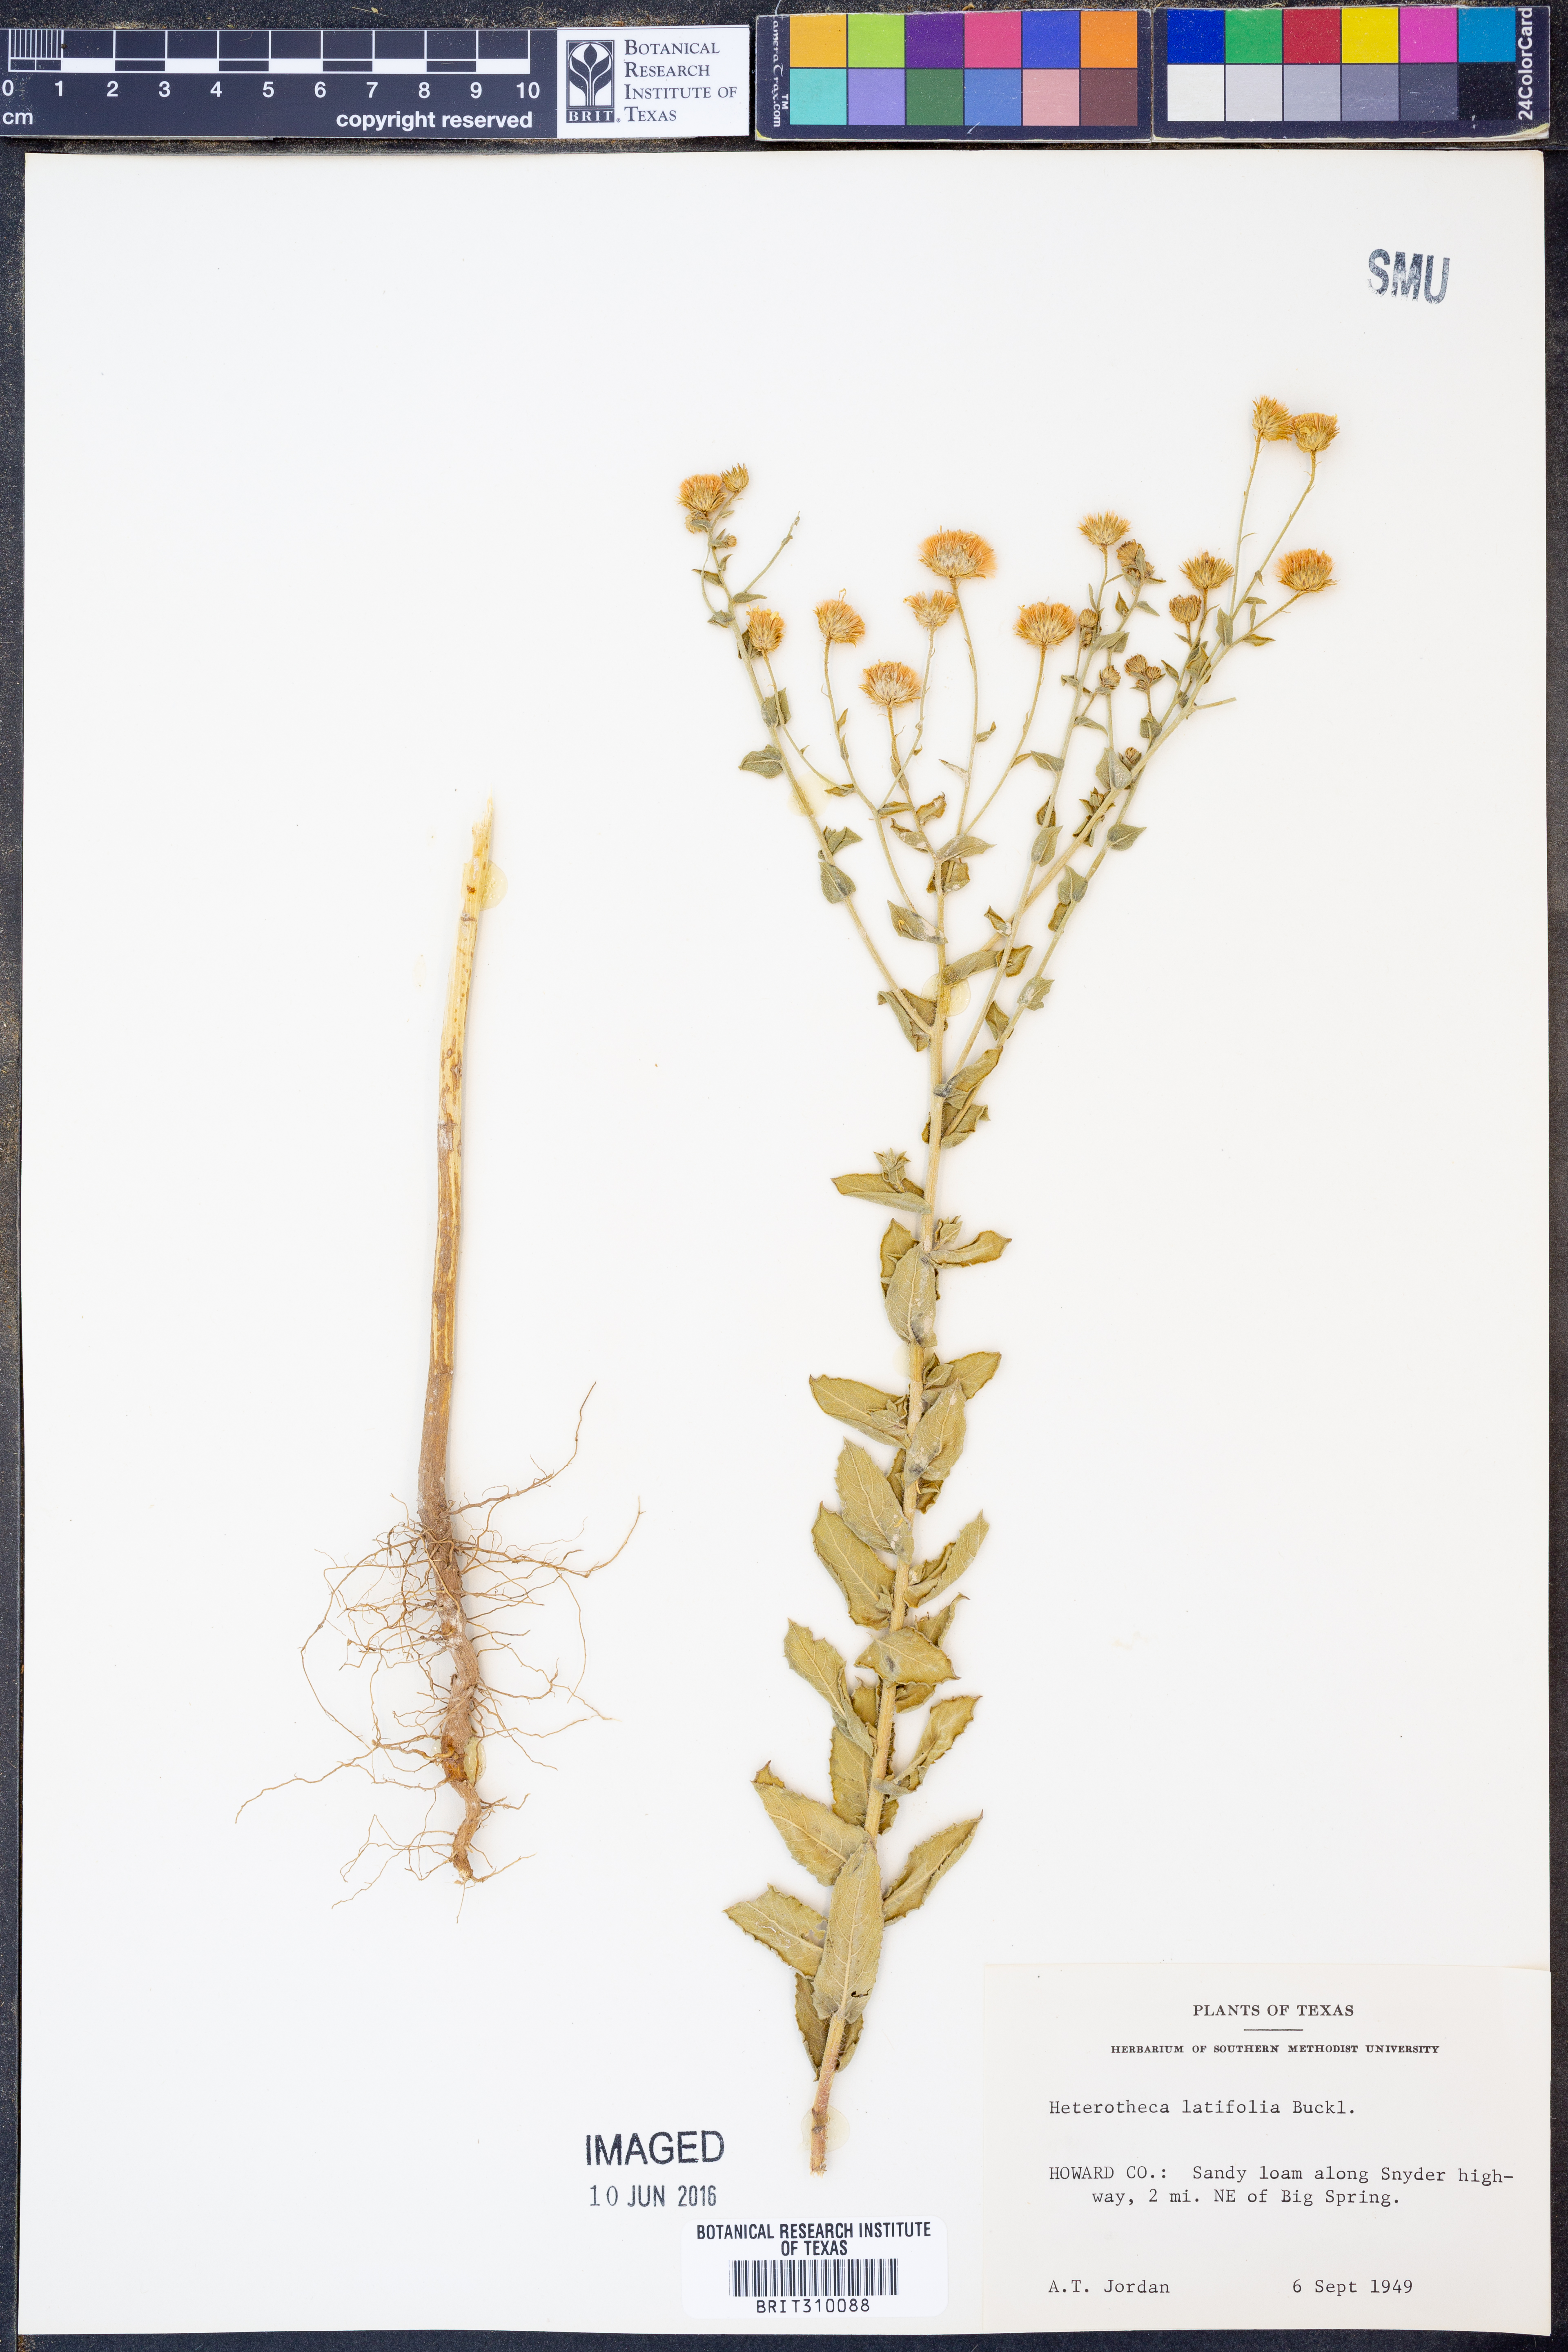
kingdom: Plantae
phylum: Tracheophyta
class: Magnoliopsida
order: Asterales
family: Asteraceae
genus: Heterotheca
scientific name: Heterotheca subaxillaris
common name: Camphorweed
